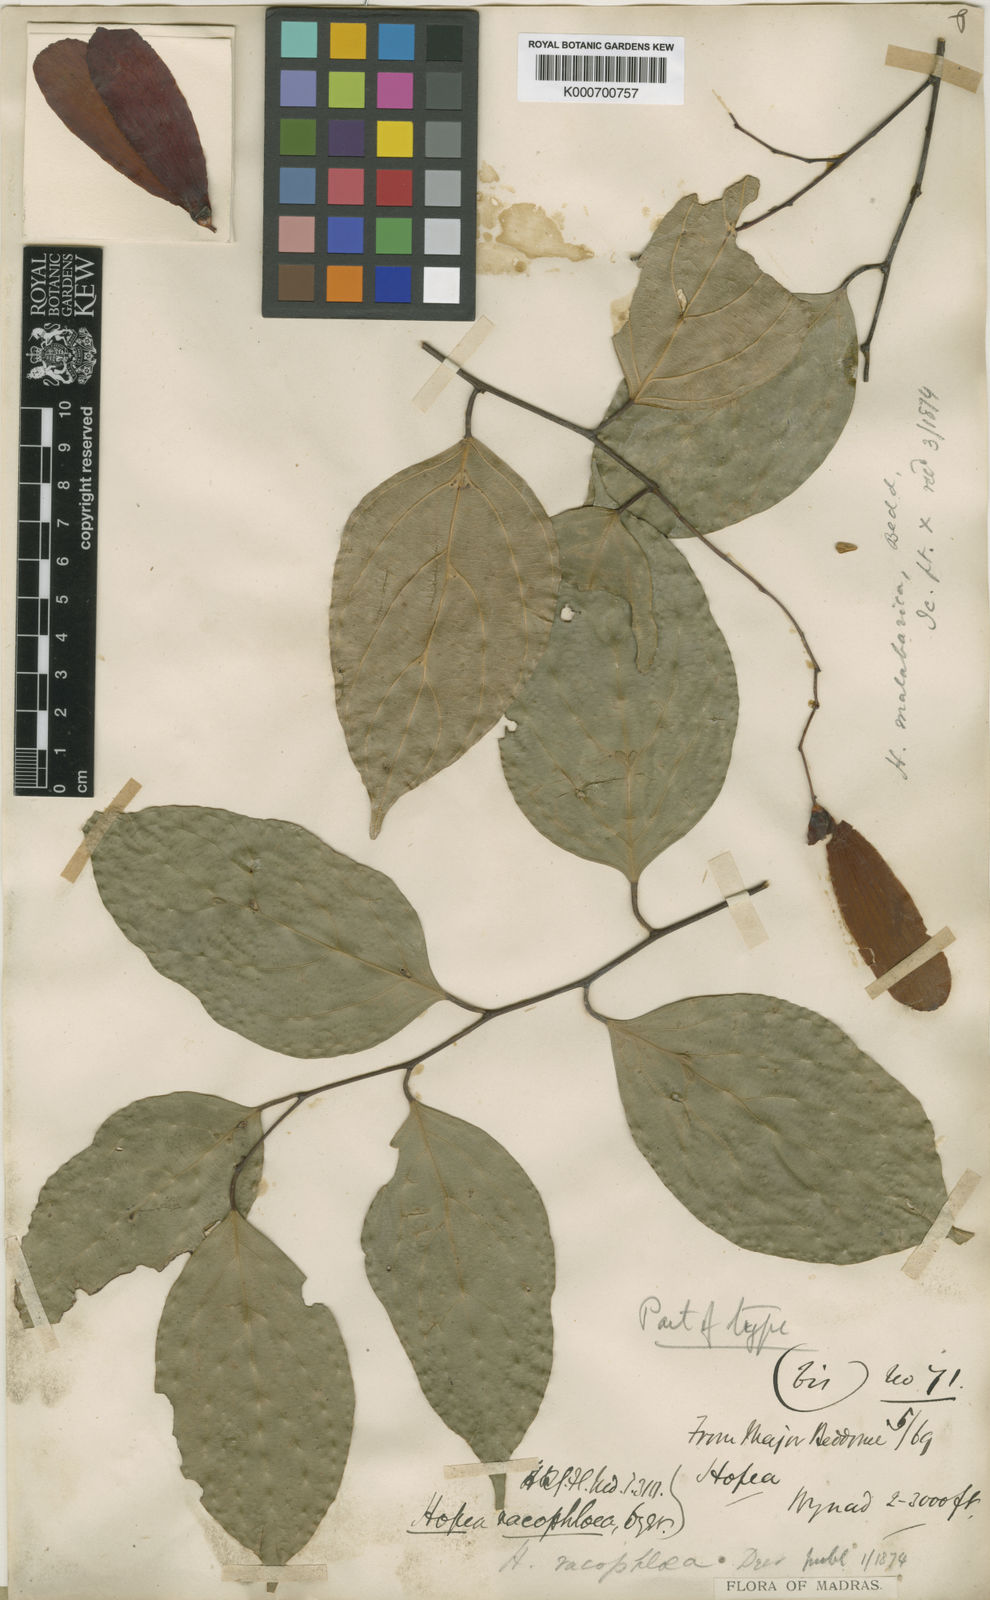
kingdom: Plantae
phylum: Tracheophyta
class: Magnoliopsida
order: Malvales
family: Dipterocarpaceae
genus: Hopea
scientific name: Hopea racophloea
